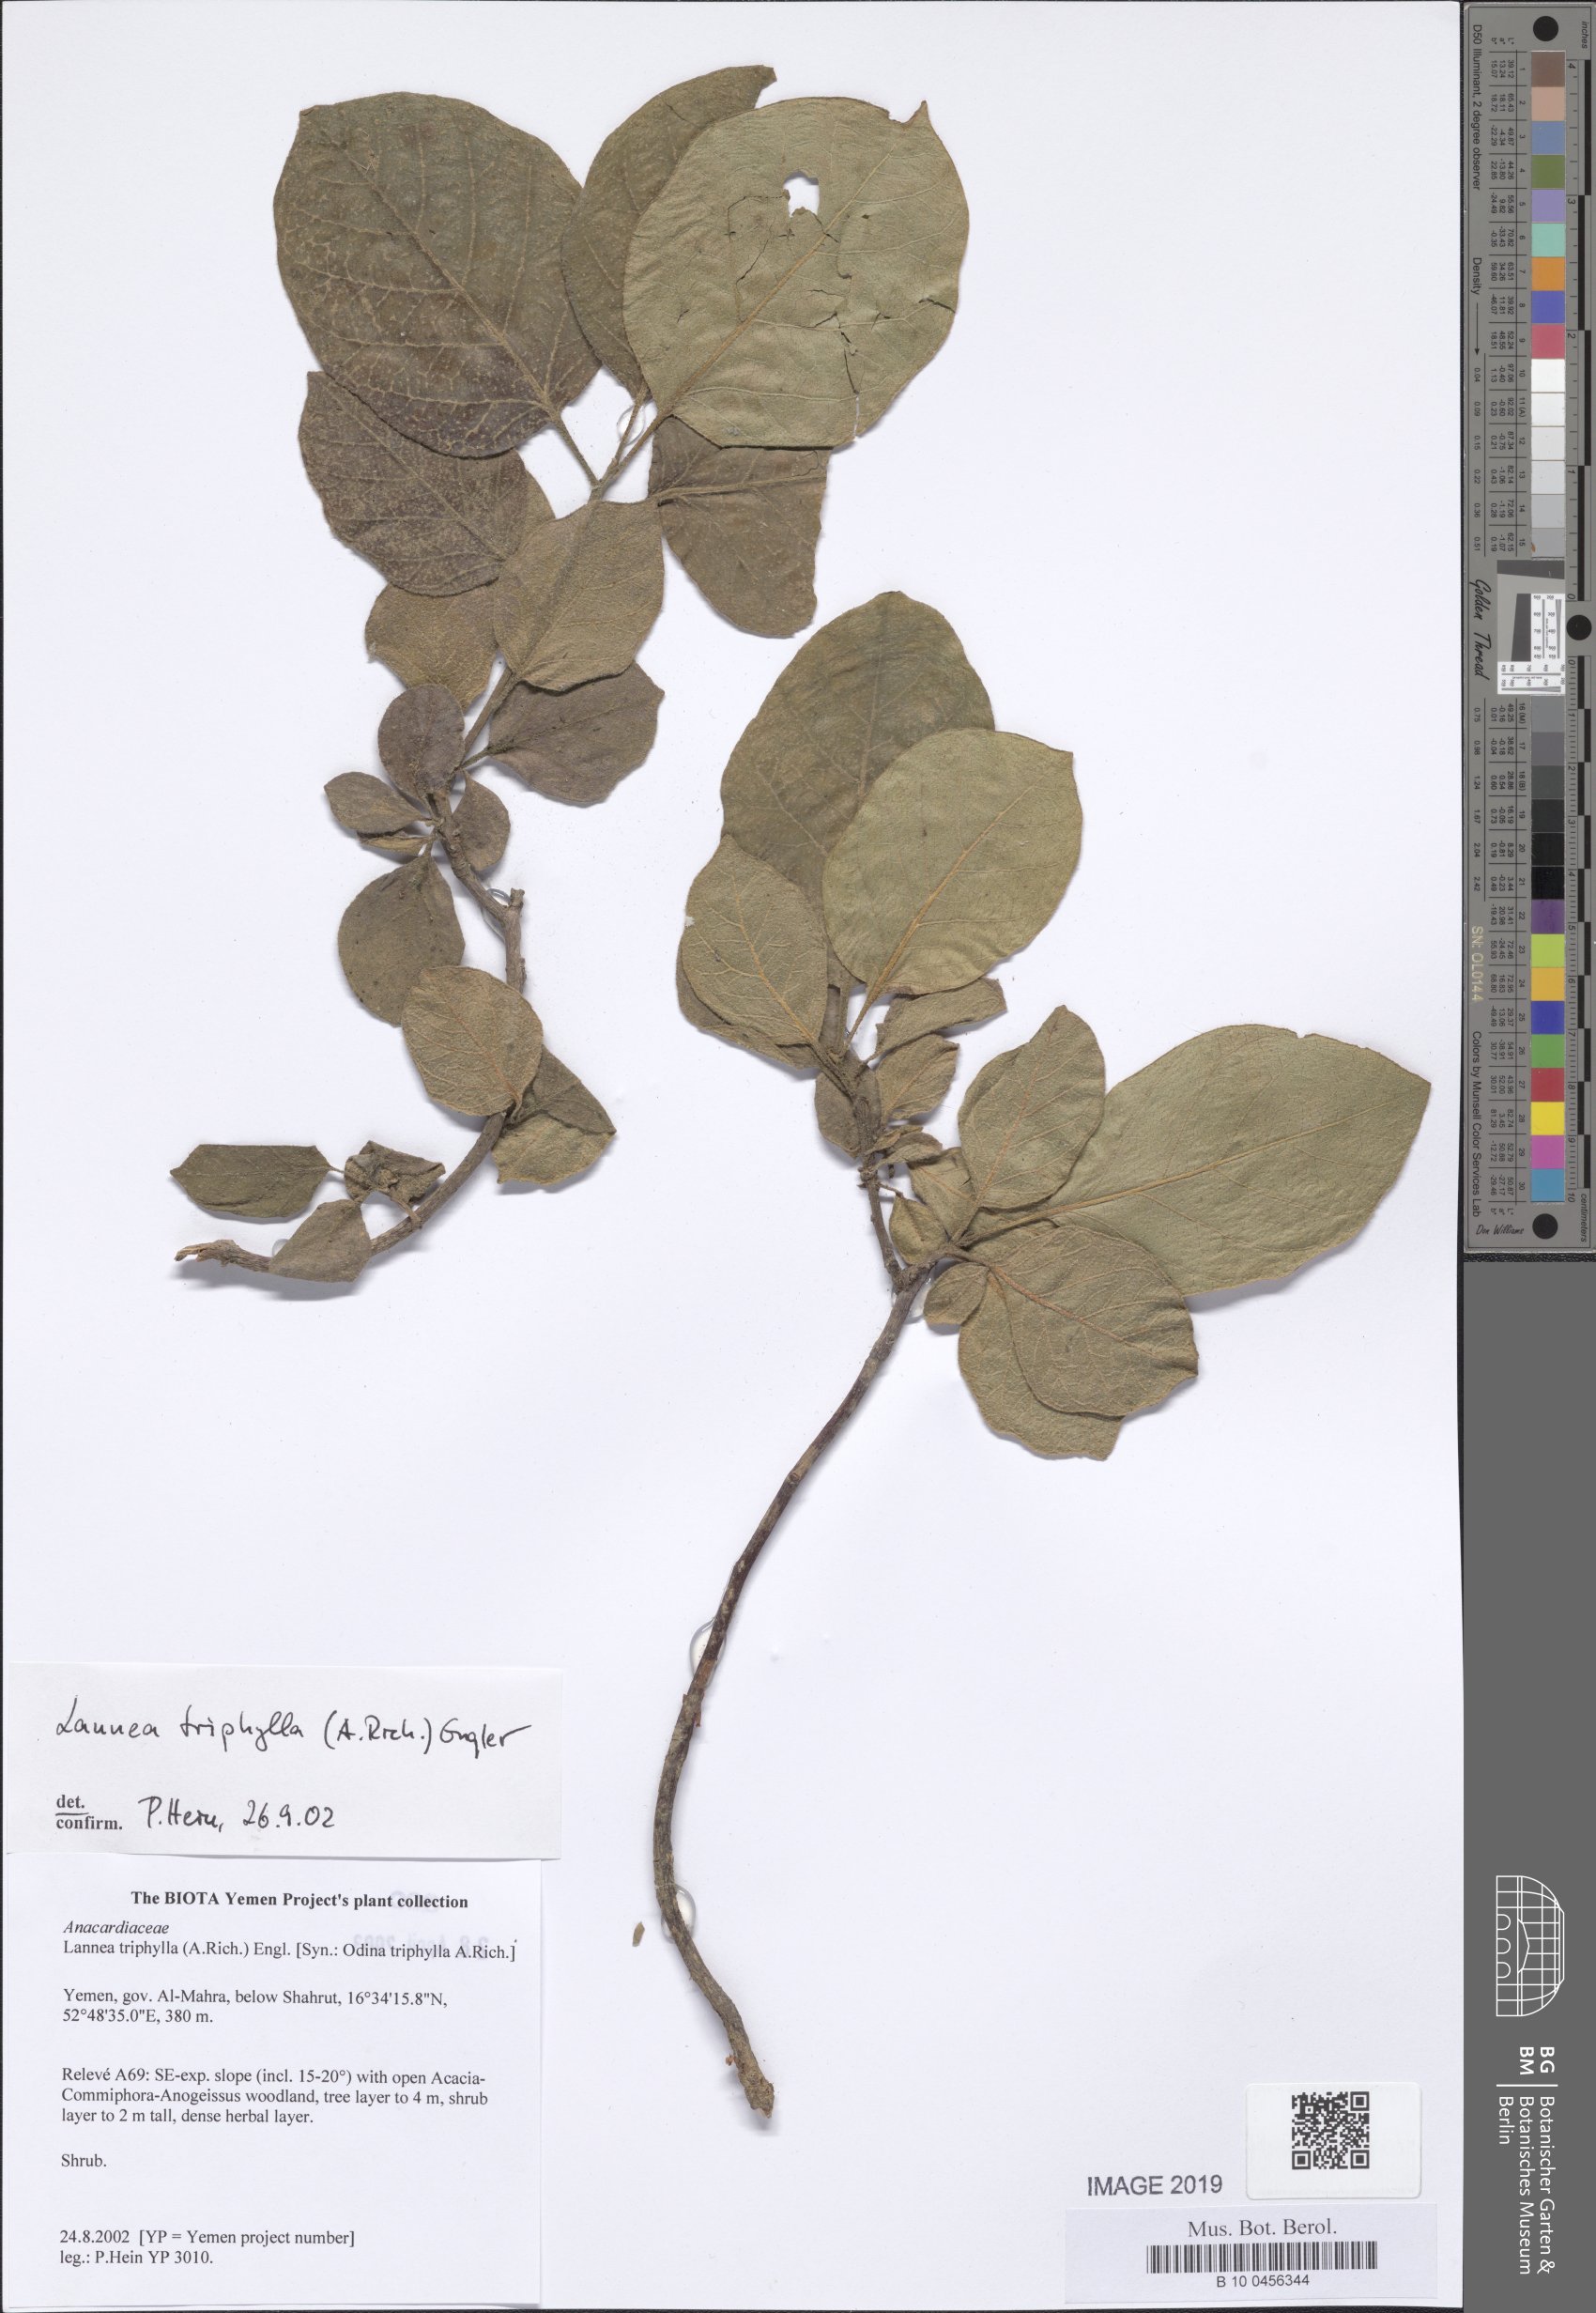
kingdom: Plantae
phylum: Tracheophyta
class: Magnoliopsida
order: Sapindales
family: Anacardiaceae
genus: Lannea
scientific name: Lannea triphylla
